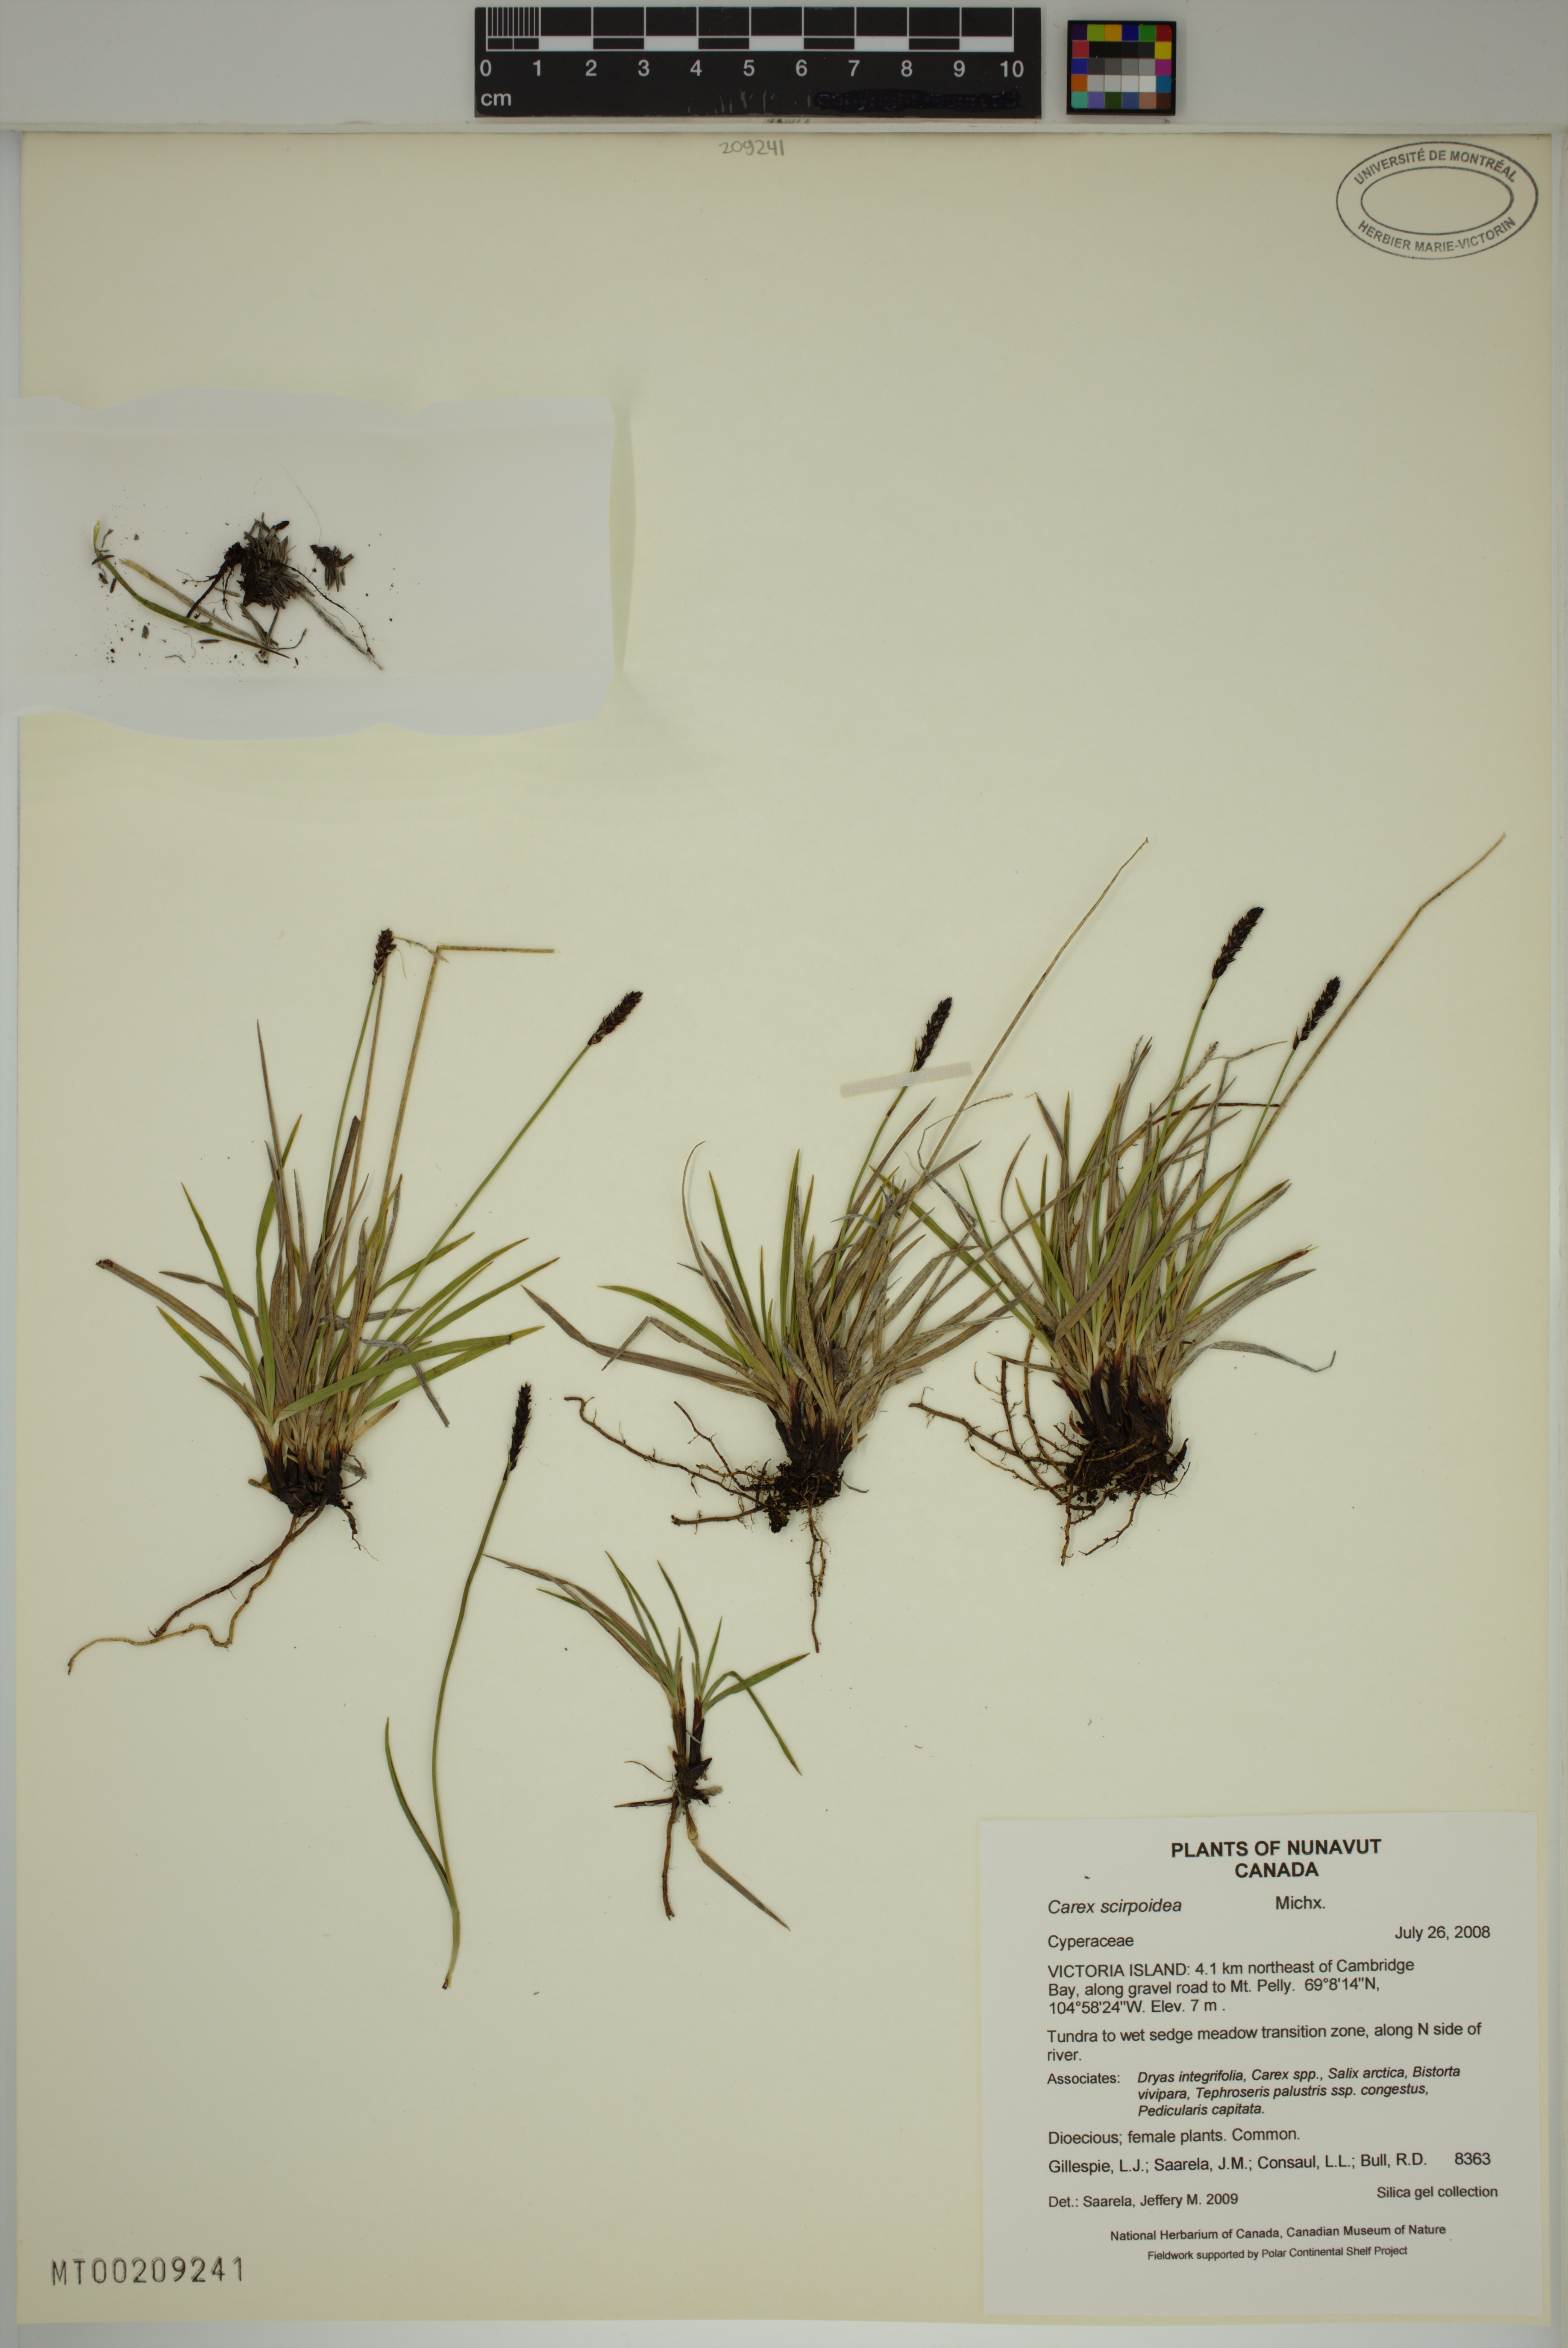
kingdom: Plantae
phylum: Tracheophyta
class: Liliopsida
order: Poales
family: Cyperaceae
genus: Carex
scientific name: Carex interior
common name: Inland sedge
